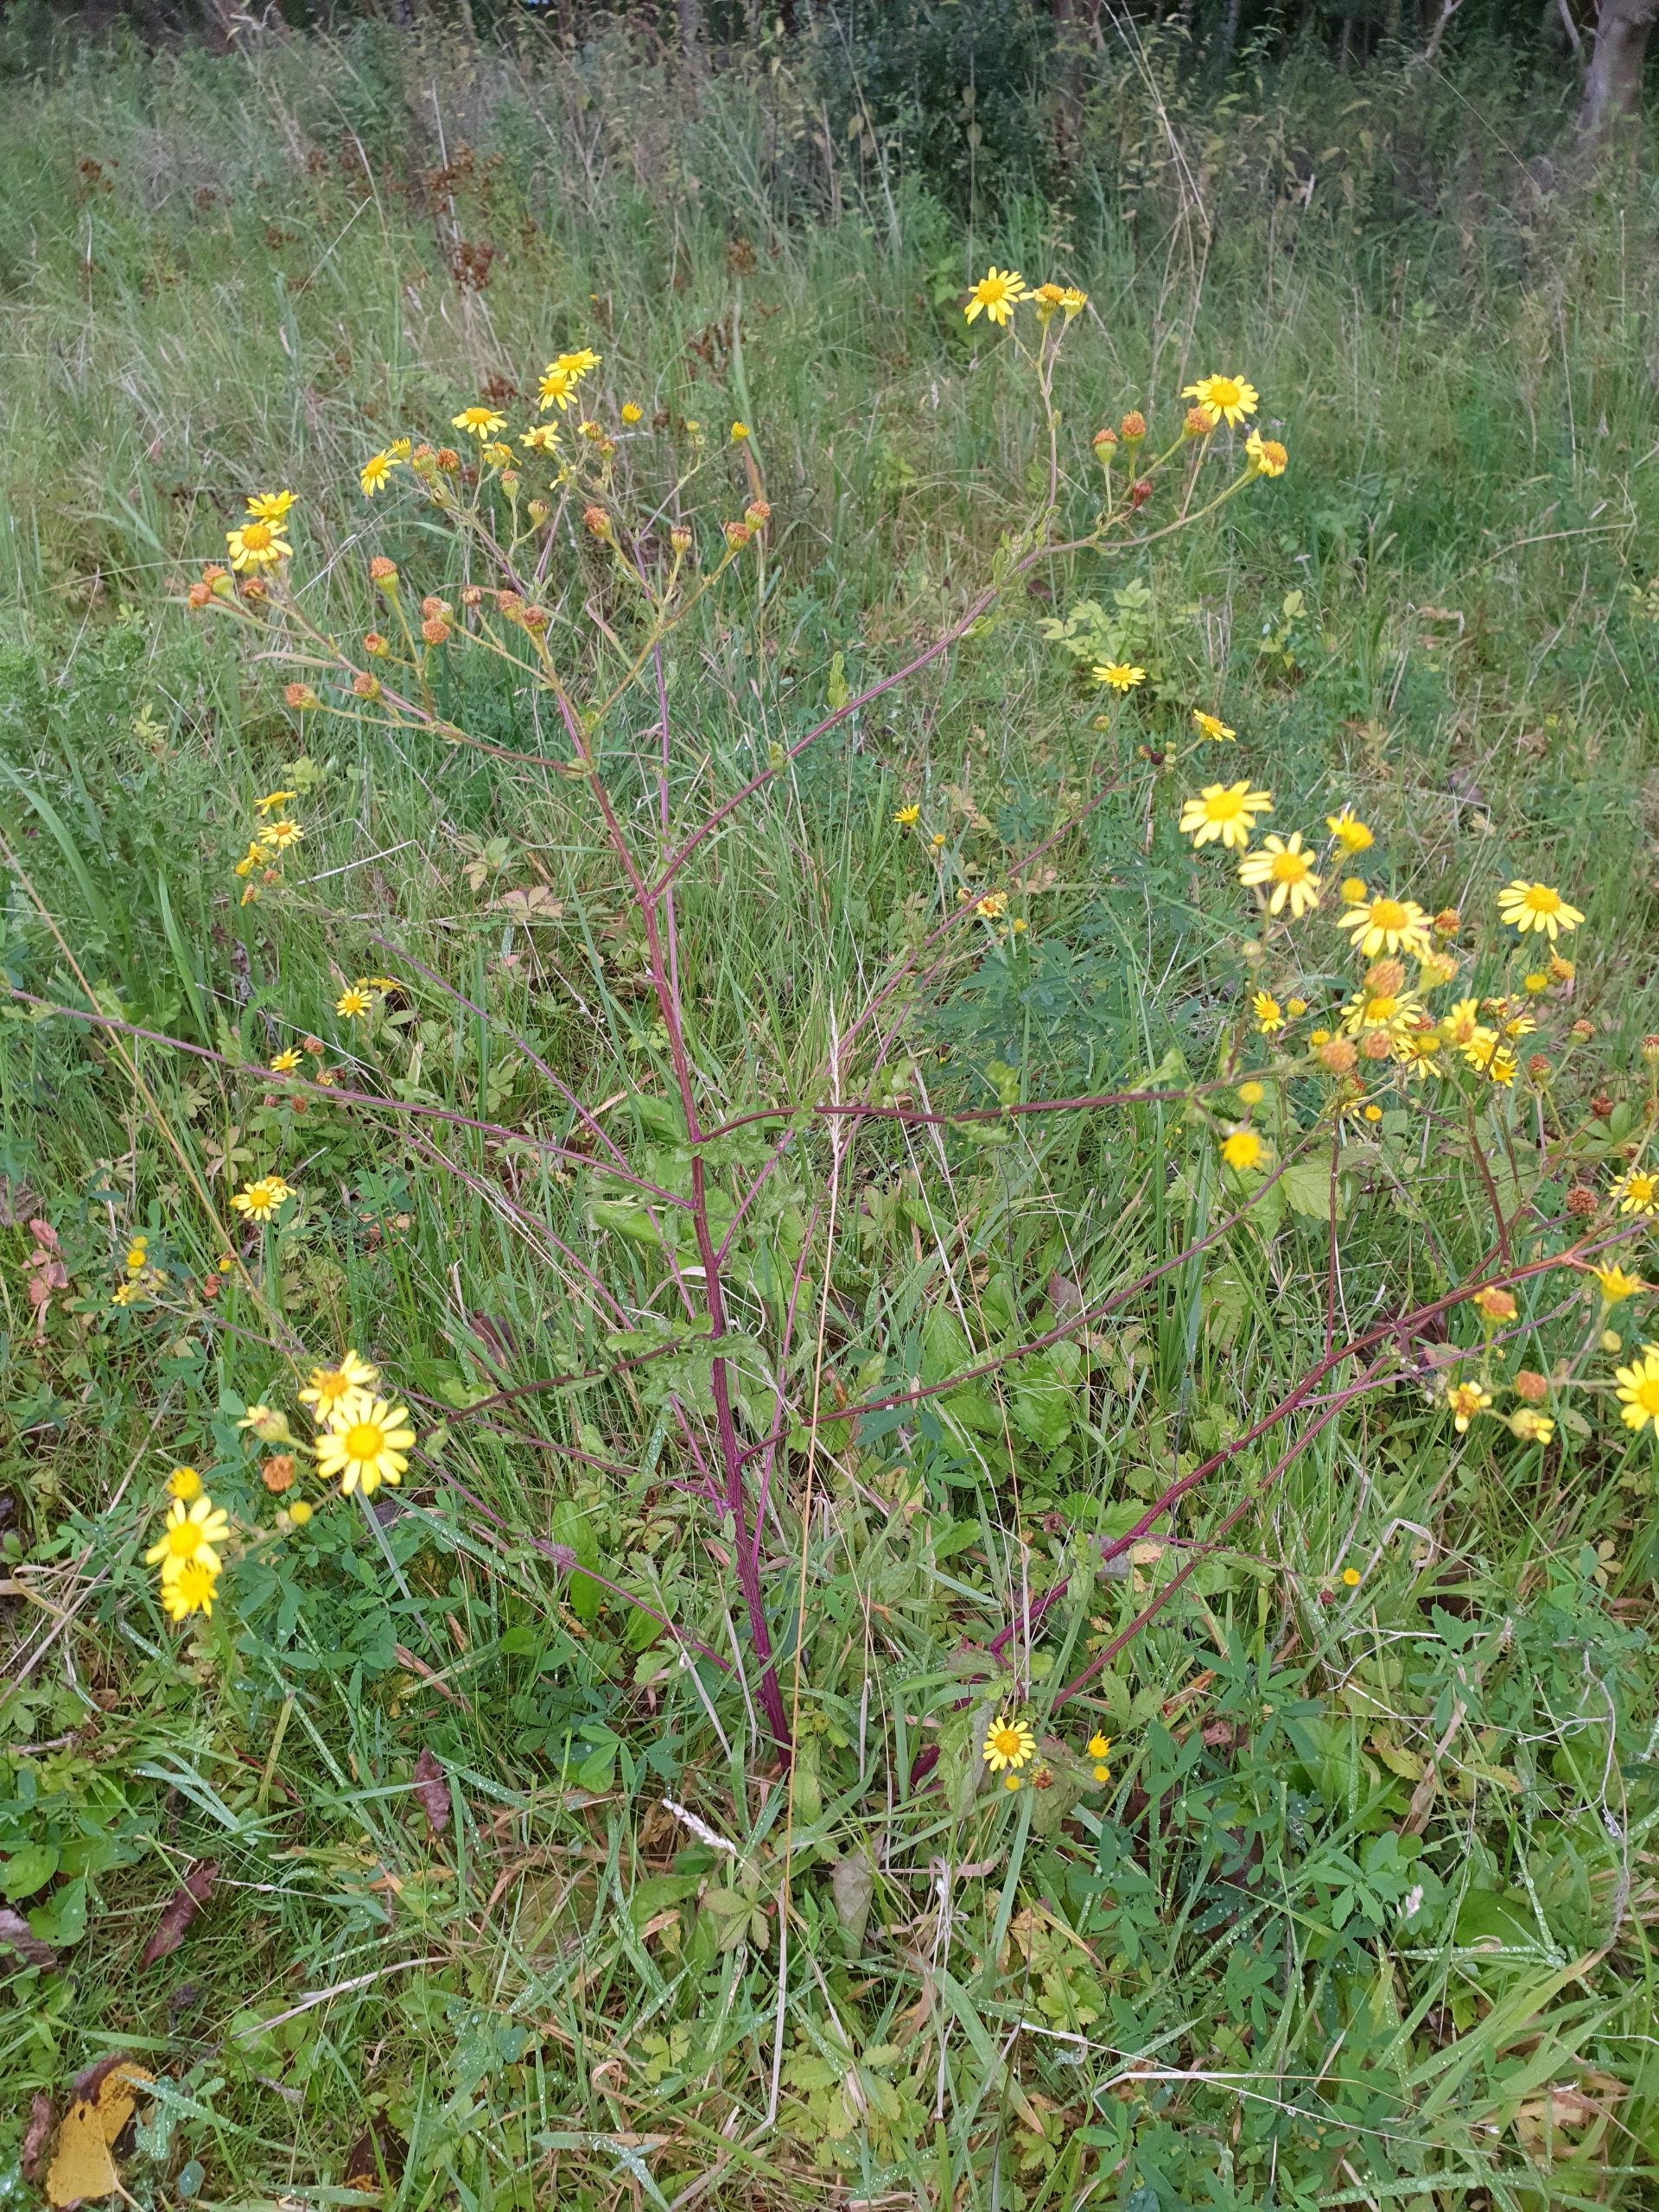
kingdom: Plantae
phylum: Tracheophyta
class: Magnoliopsida
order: Asterales
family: Asteraceae
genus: Jacobaea
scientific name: Jacobaea erratica
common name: Småblomstret brandbæger
